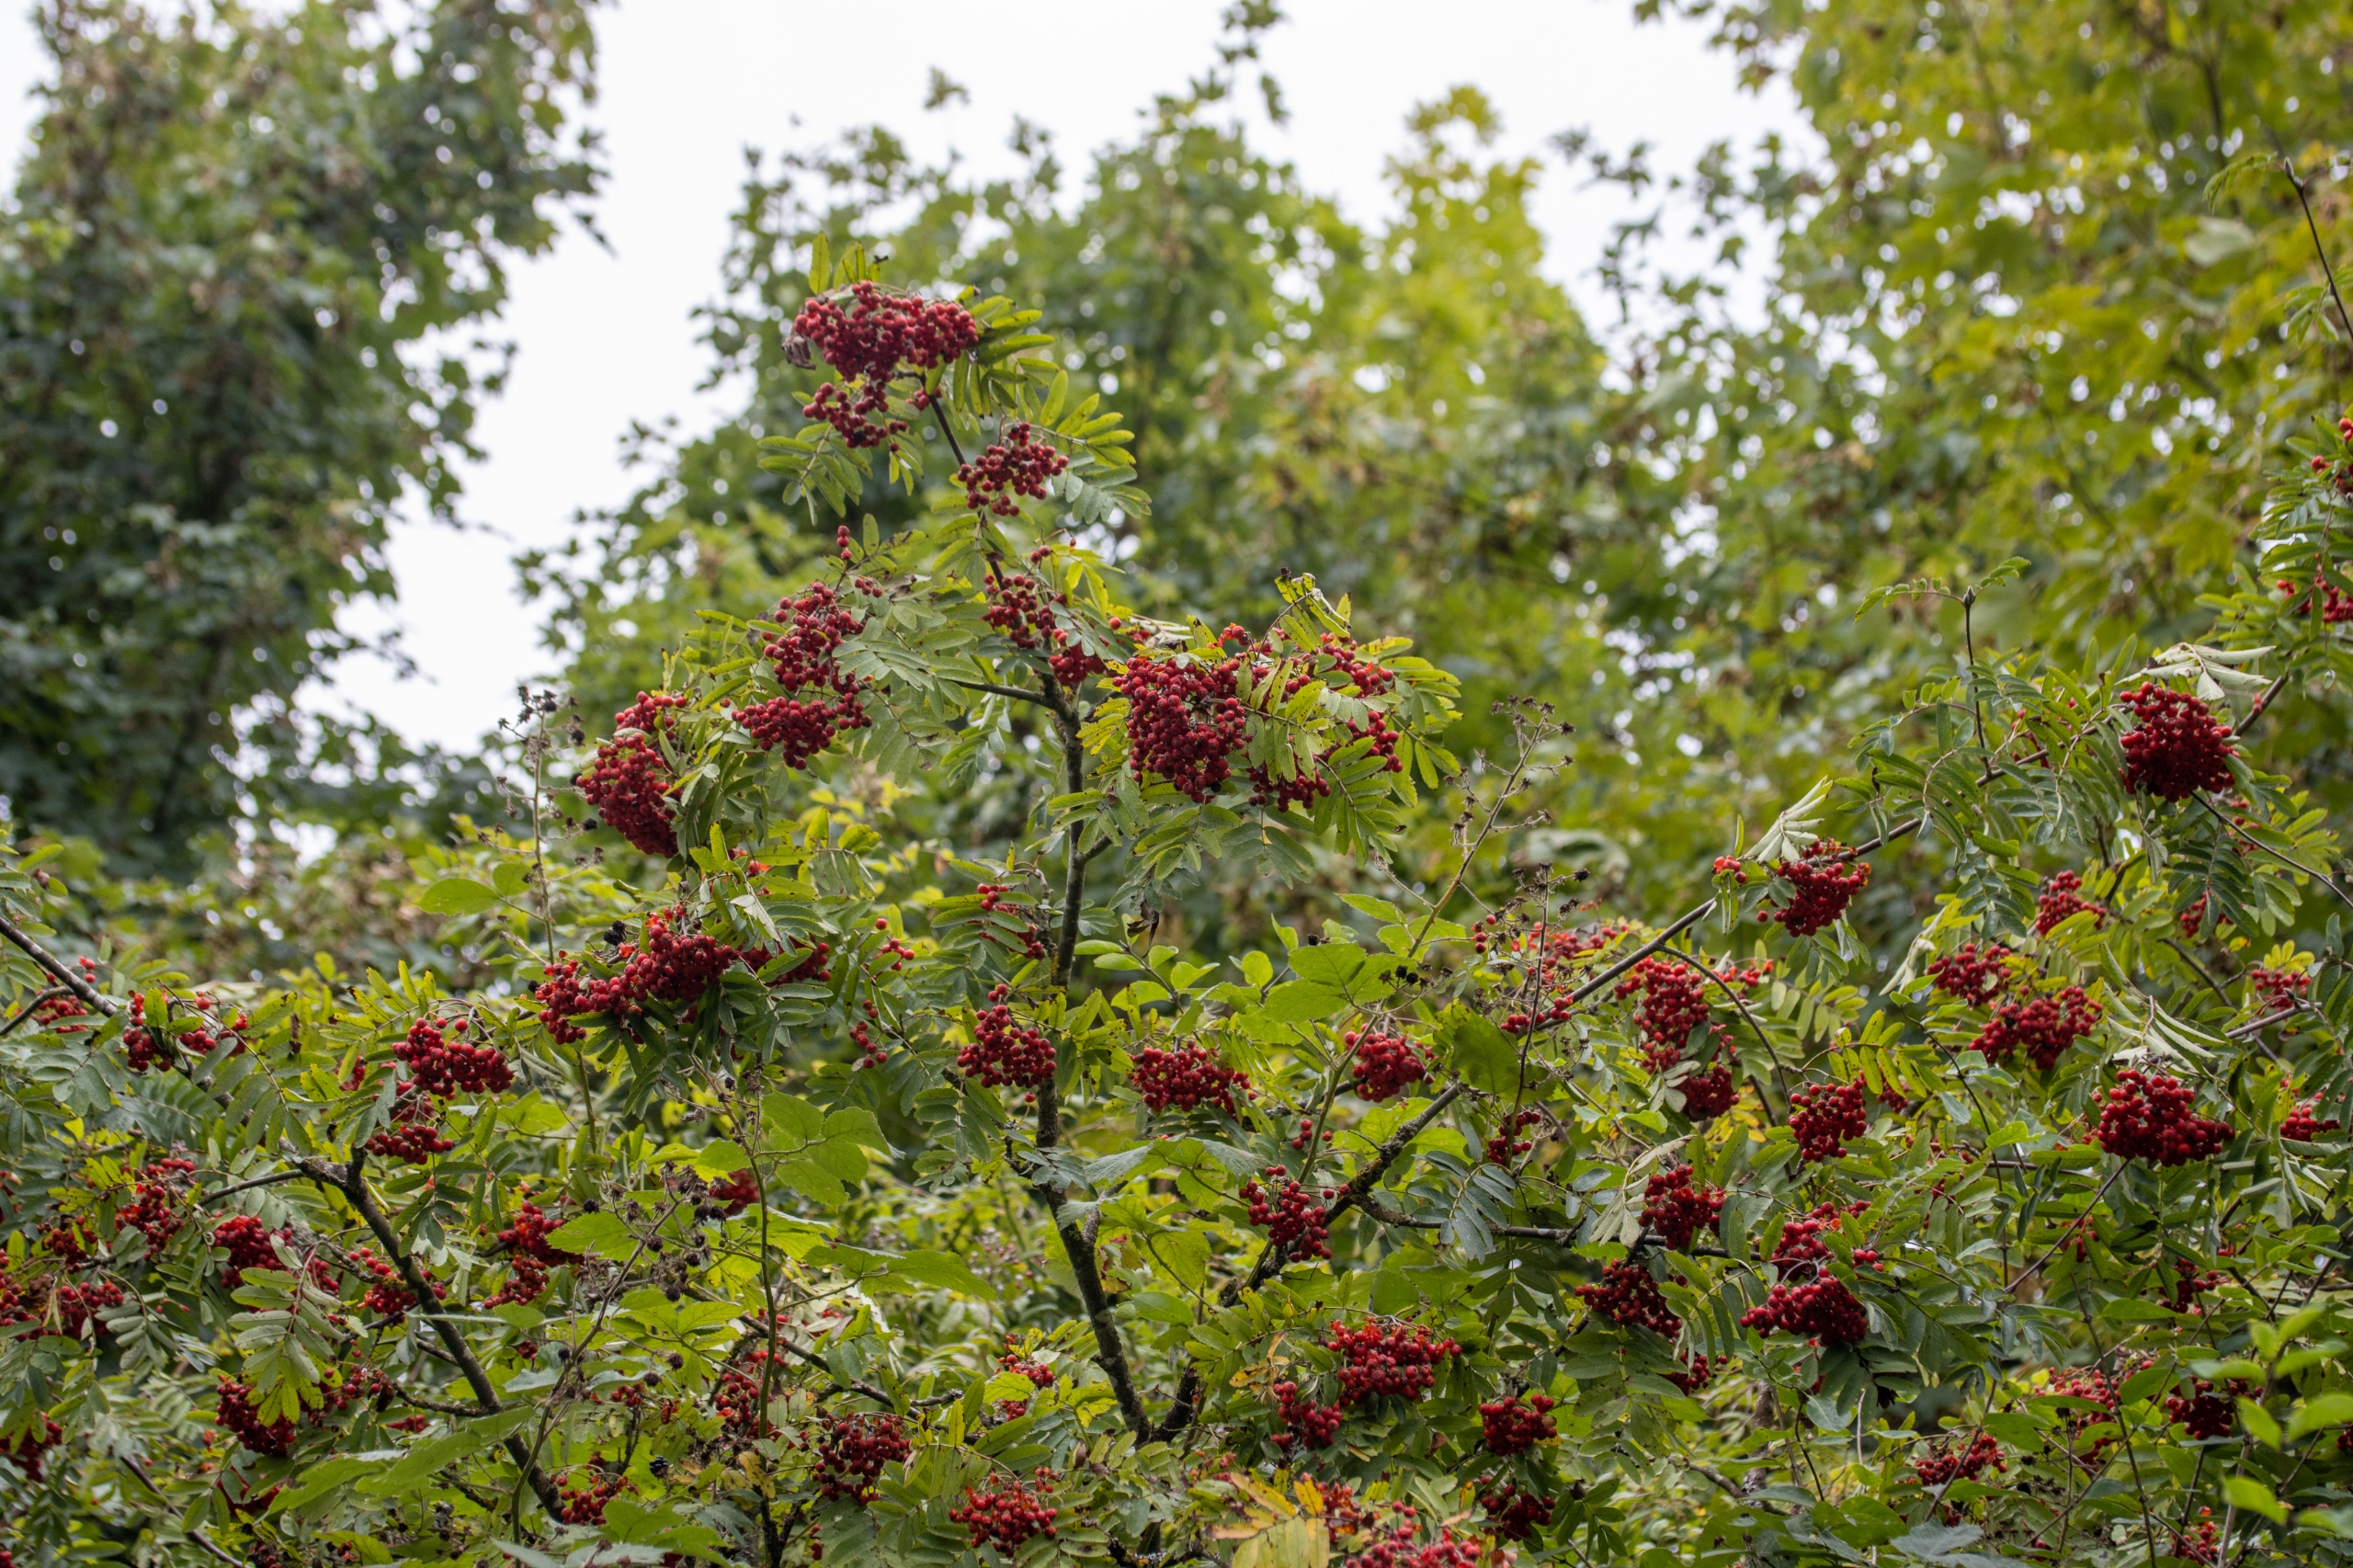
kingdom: Plantae
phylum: Tracheophyta
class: Magnoliopsida
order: Rosales
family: Rosaceae
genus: Sorbus
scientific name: Sorbus aucuparia
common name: Almindelig røn
